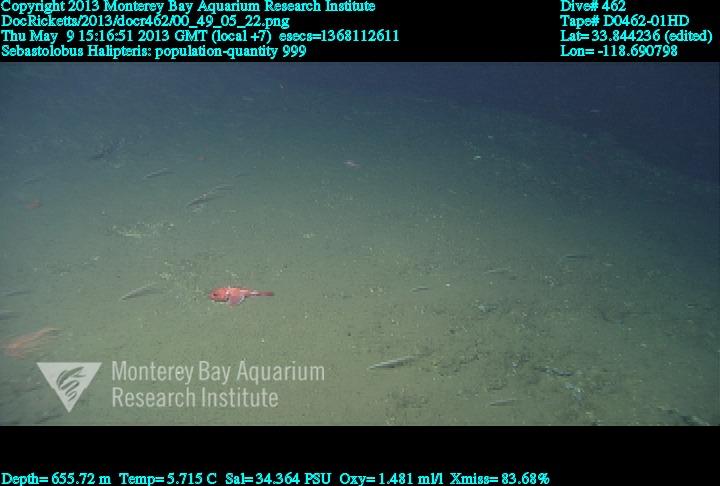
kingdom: Animalia
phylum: Cnidaria
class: Anthozoa
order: Scleralcyonacea
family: Balticinidae
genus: Balticina
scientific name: Balticina
